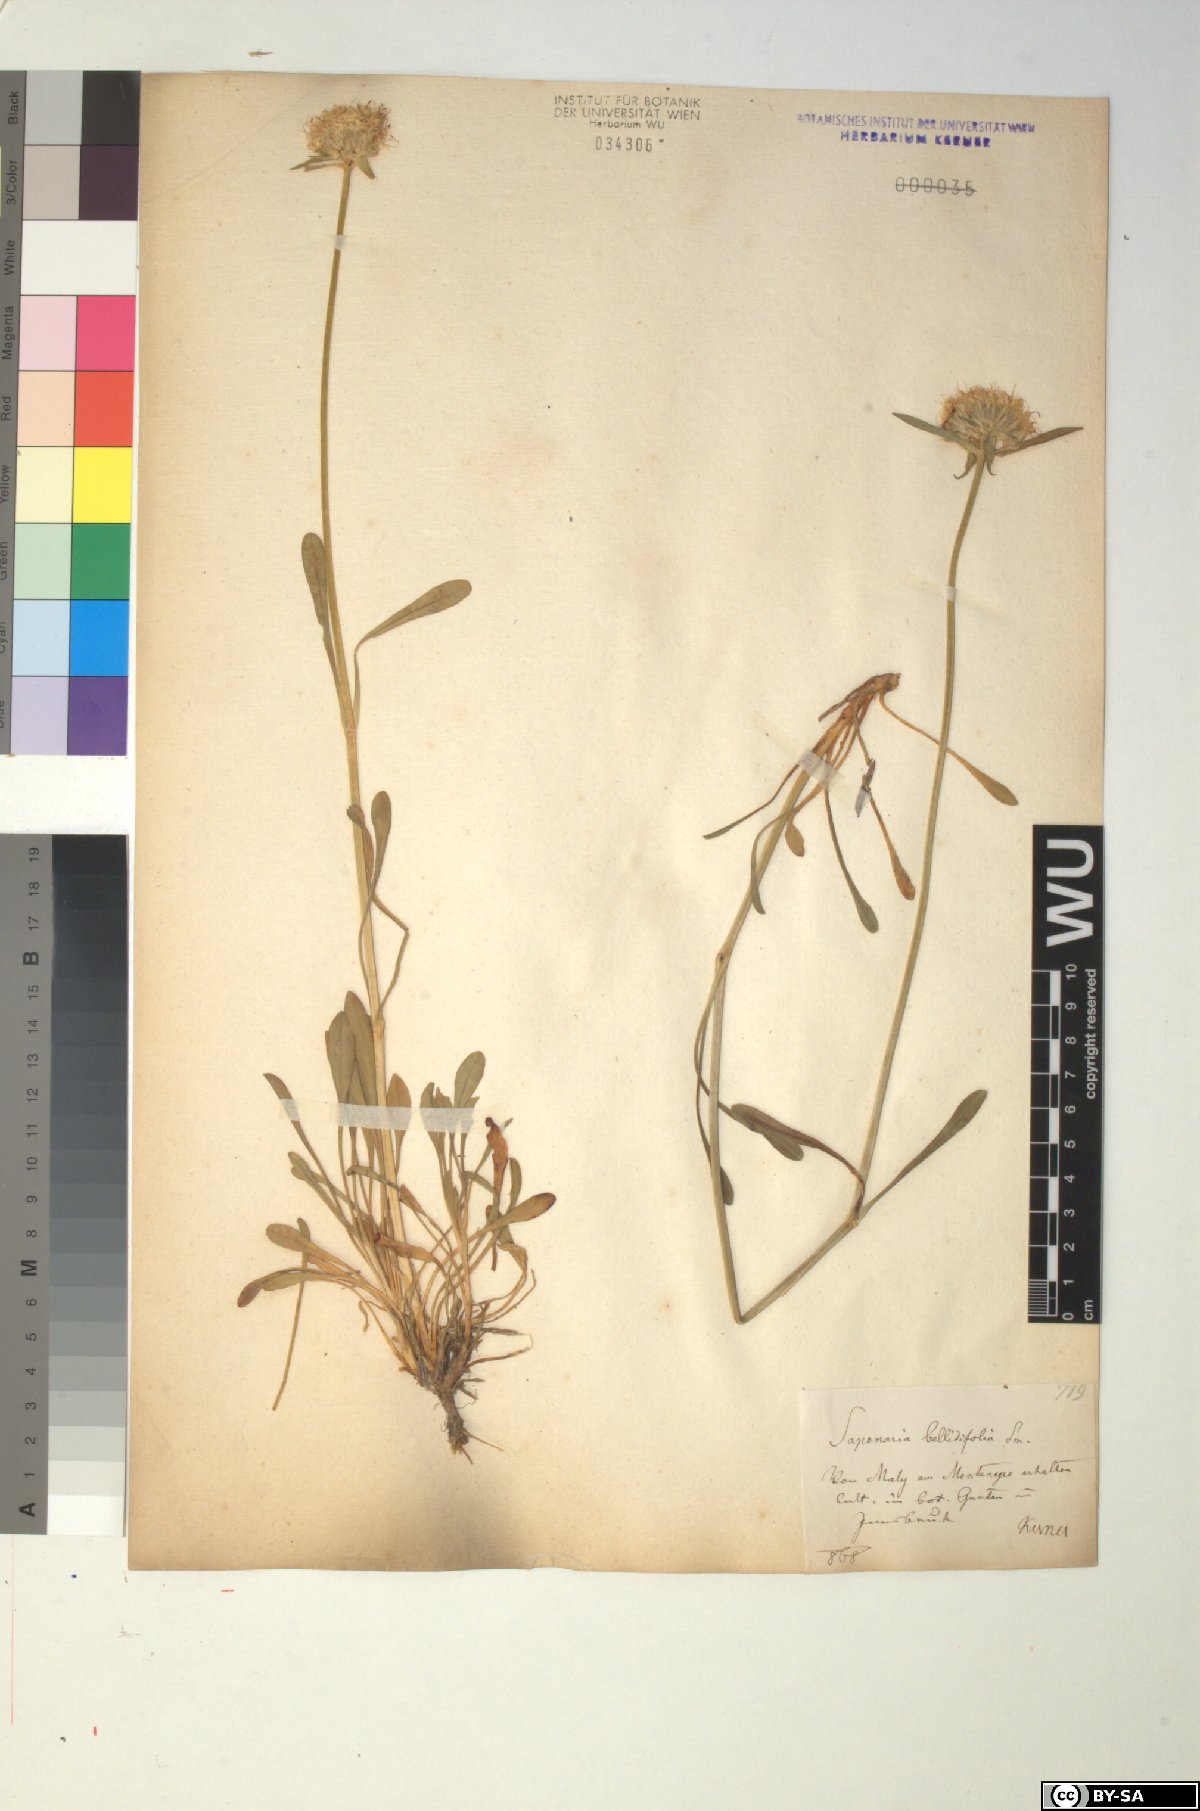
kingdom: Plantae
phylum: Tracheophyta
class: Magnoliopsida
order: Caryophyllales
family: Caryophyllaceae
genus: Saponaria
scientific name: Saponaria bellidifolia
